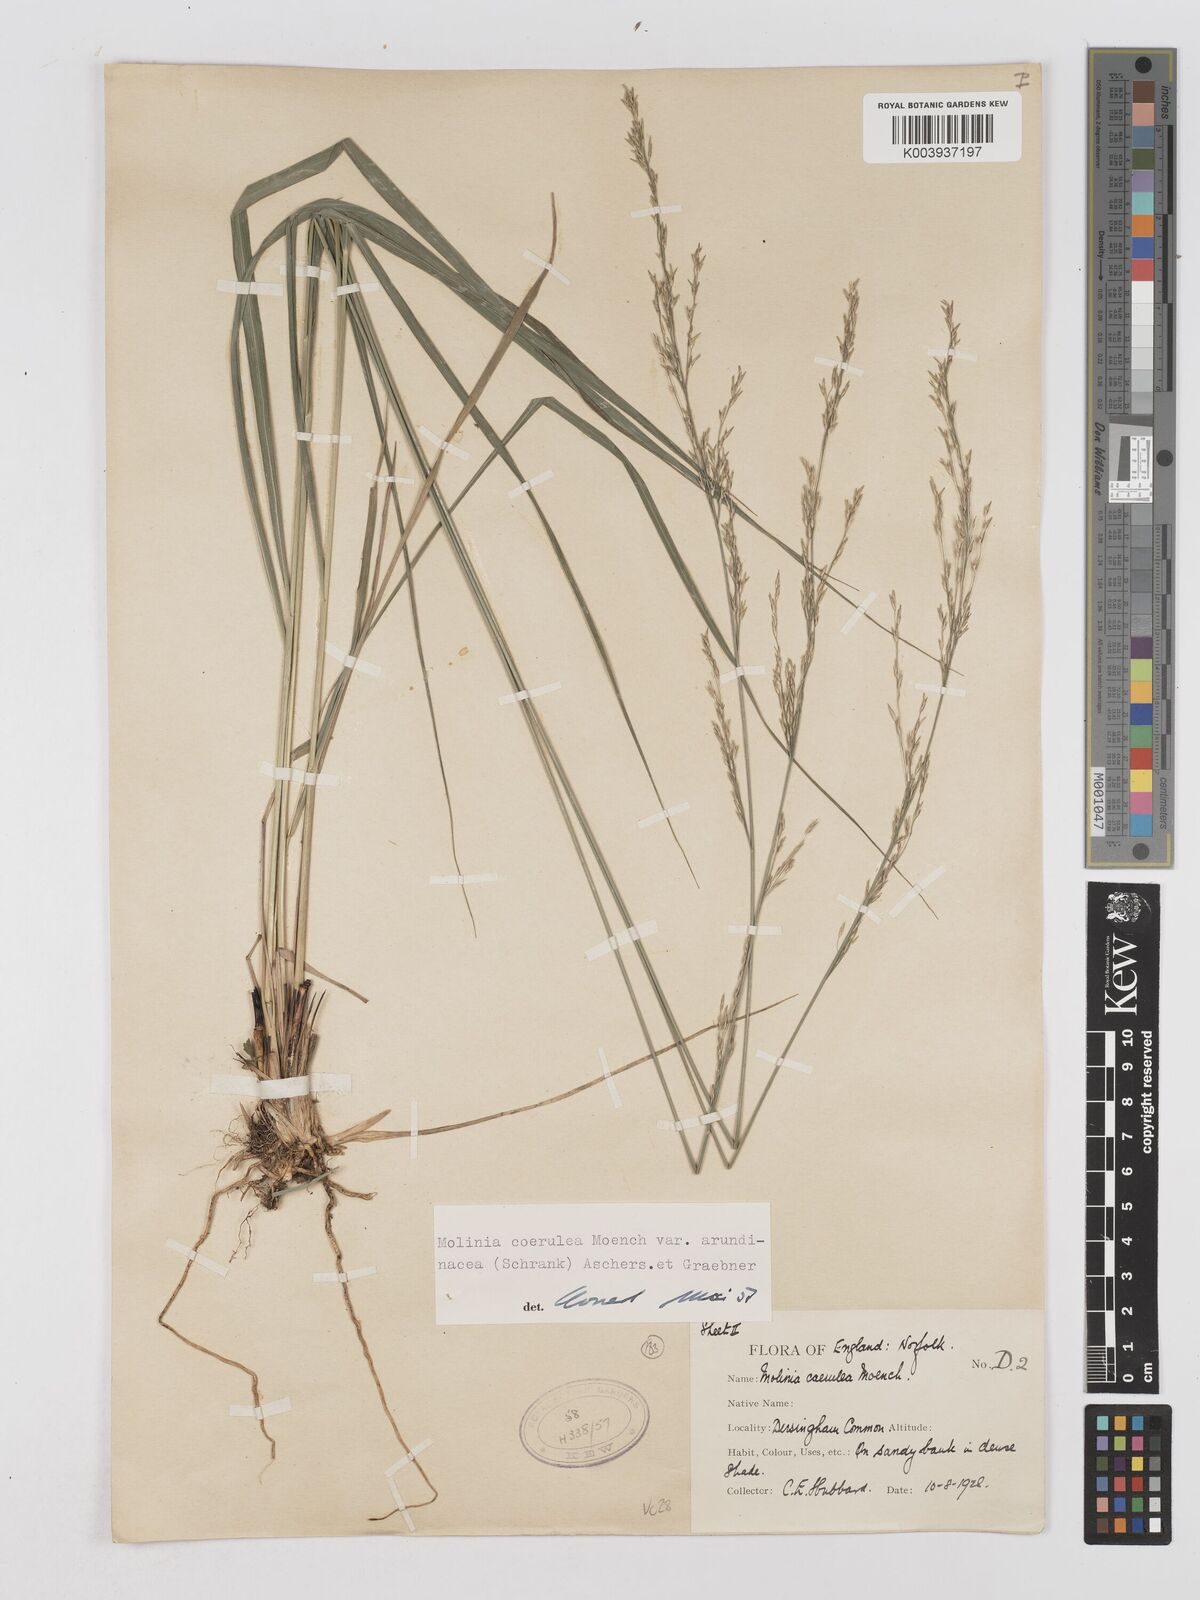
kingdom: Plantae
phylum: Tracheophyta
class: Liliopsida
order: Poales
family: Poaceae
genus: Molinia
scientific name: Molinia caerulea
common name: Purple moor-grass
